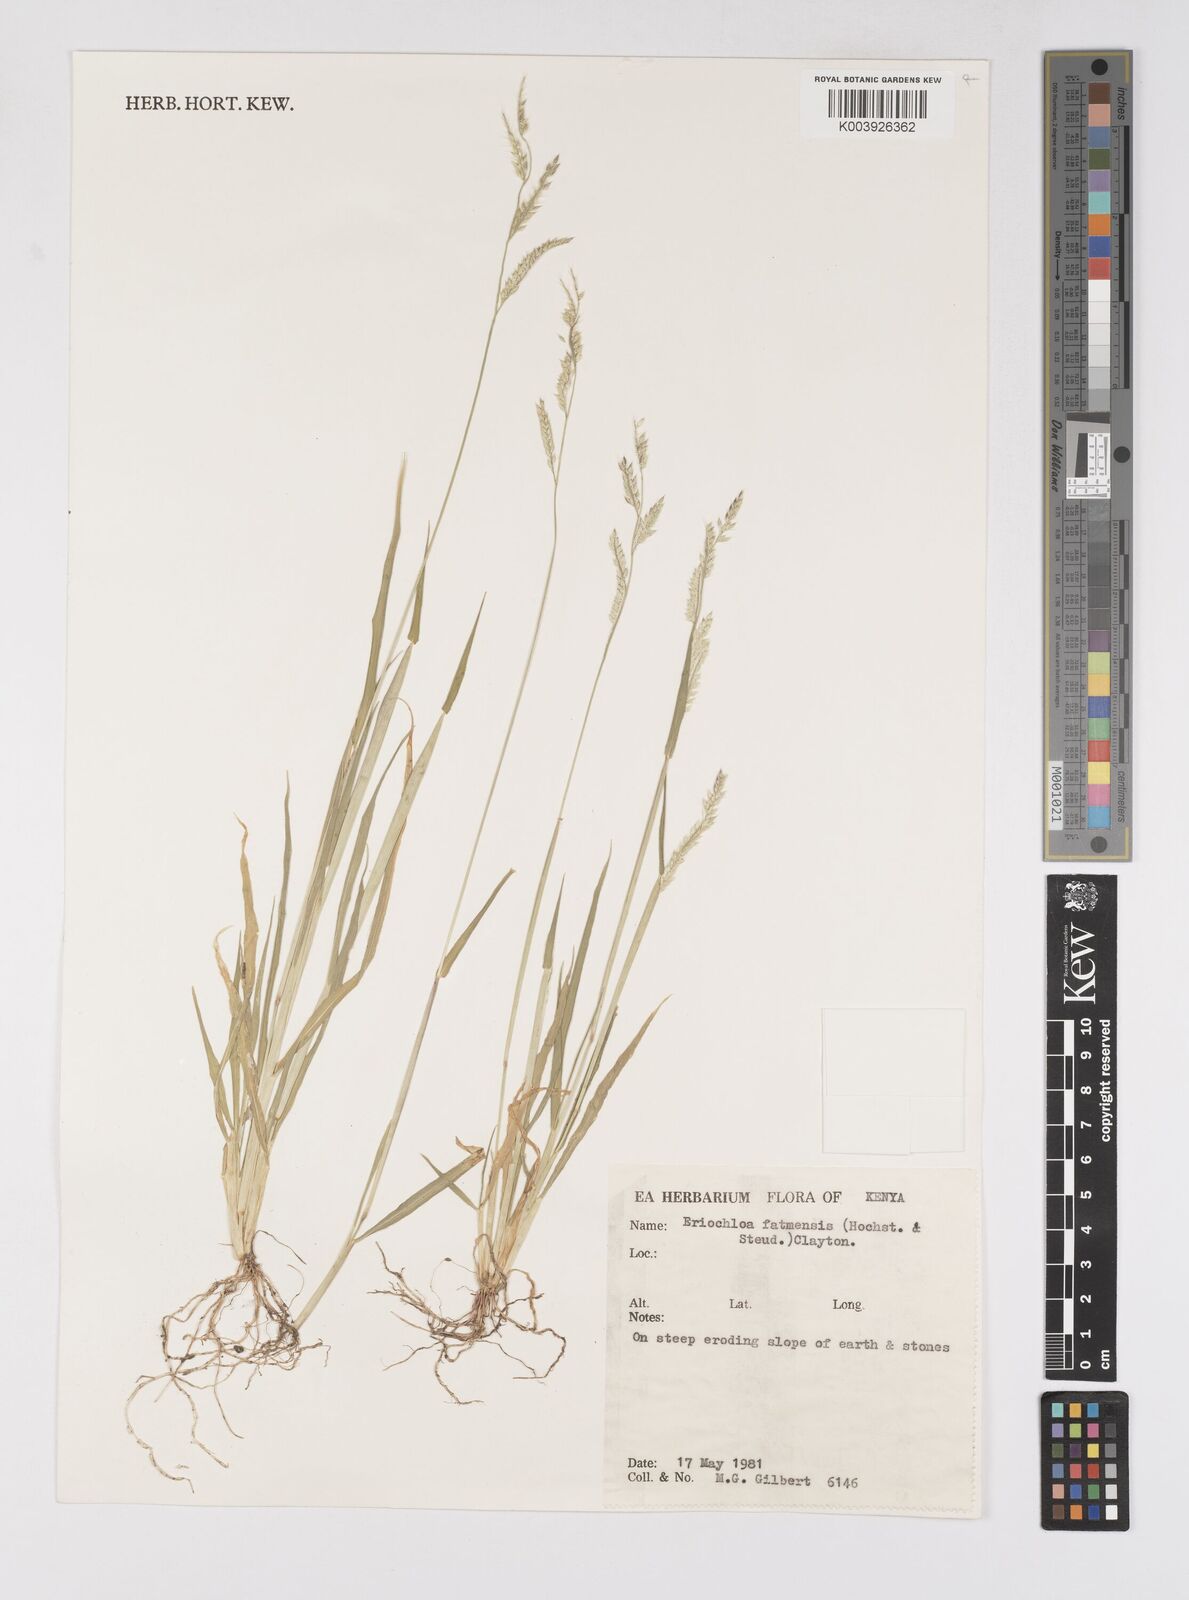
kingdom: Plantae
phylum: Tracheophyta
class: Liliopsida
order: Poales
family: Poaceae
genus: Eriochloa
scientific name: Eriochloa barbatus
